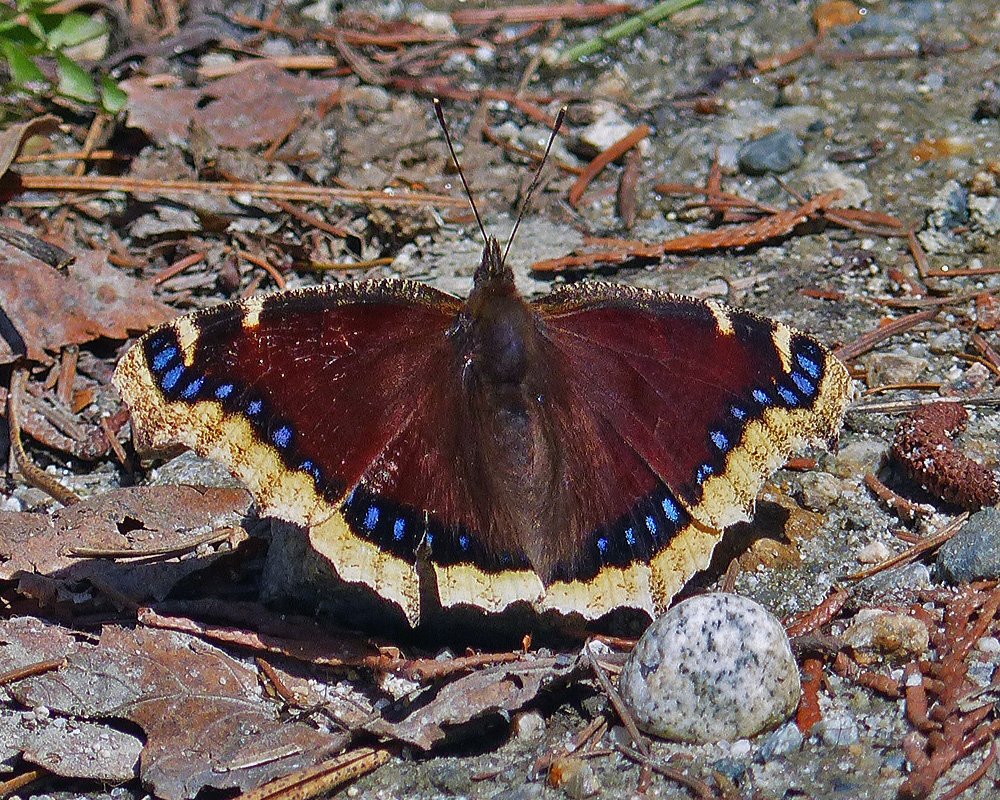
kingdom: Animalia
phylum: Arthropoda
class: Insecta
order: Lepidoptera
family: Nymphalidae
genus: Nymphalis
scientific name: Nymphalis antiopa
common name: Mourning Cloak
